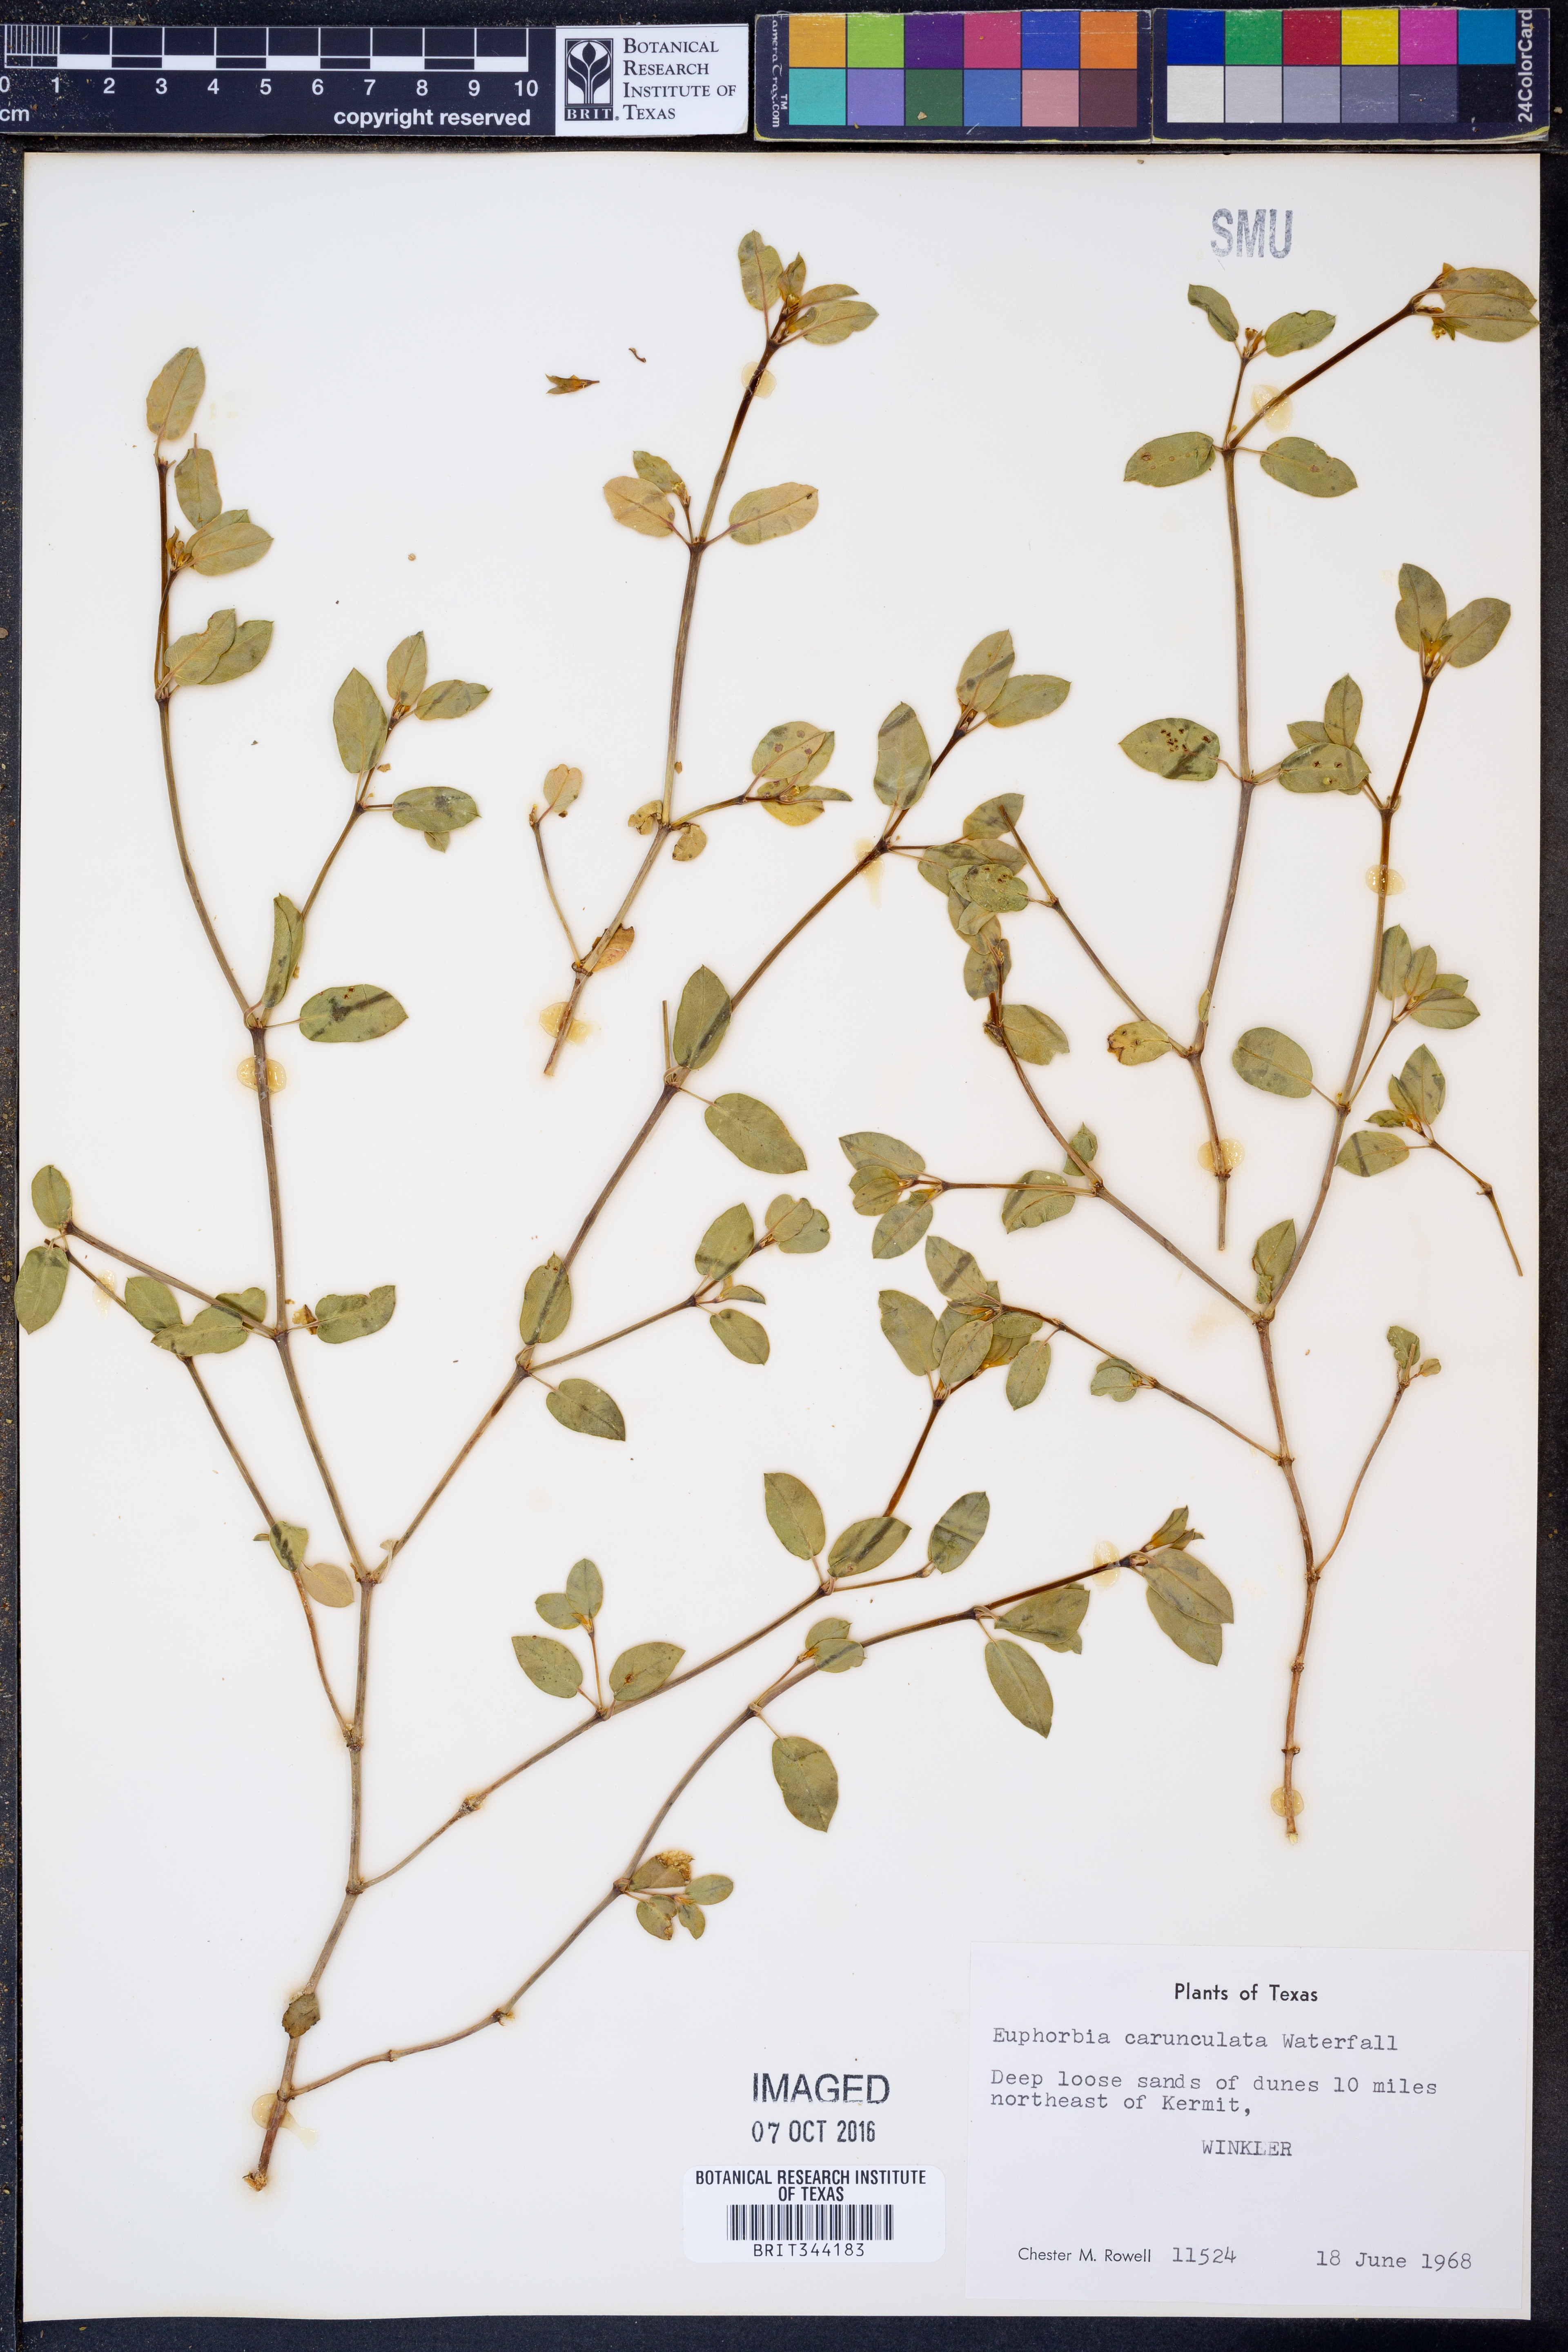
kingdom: Plantae
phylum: Tracheophyta
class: Magnoliopsida
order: Malpighiales
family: Euphorbiaceae
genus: Euphorbia
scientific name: Euphorbia carunculata
